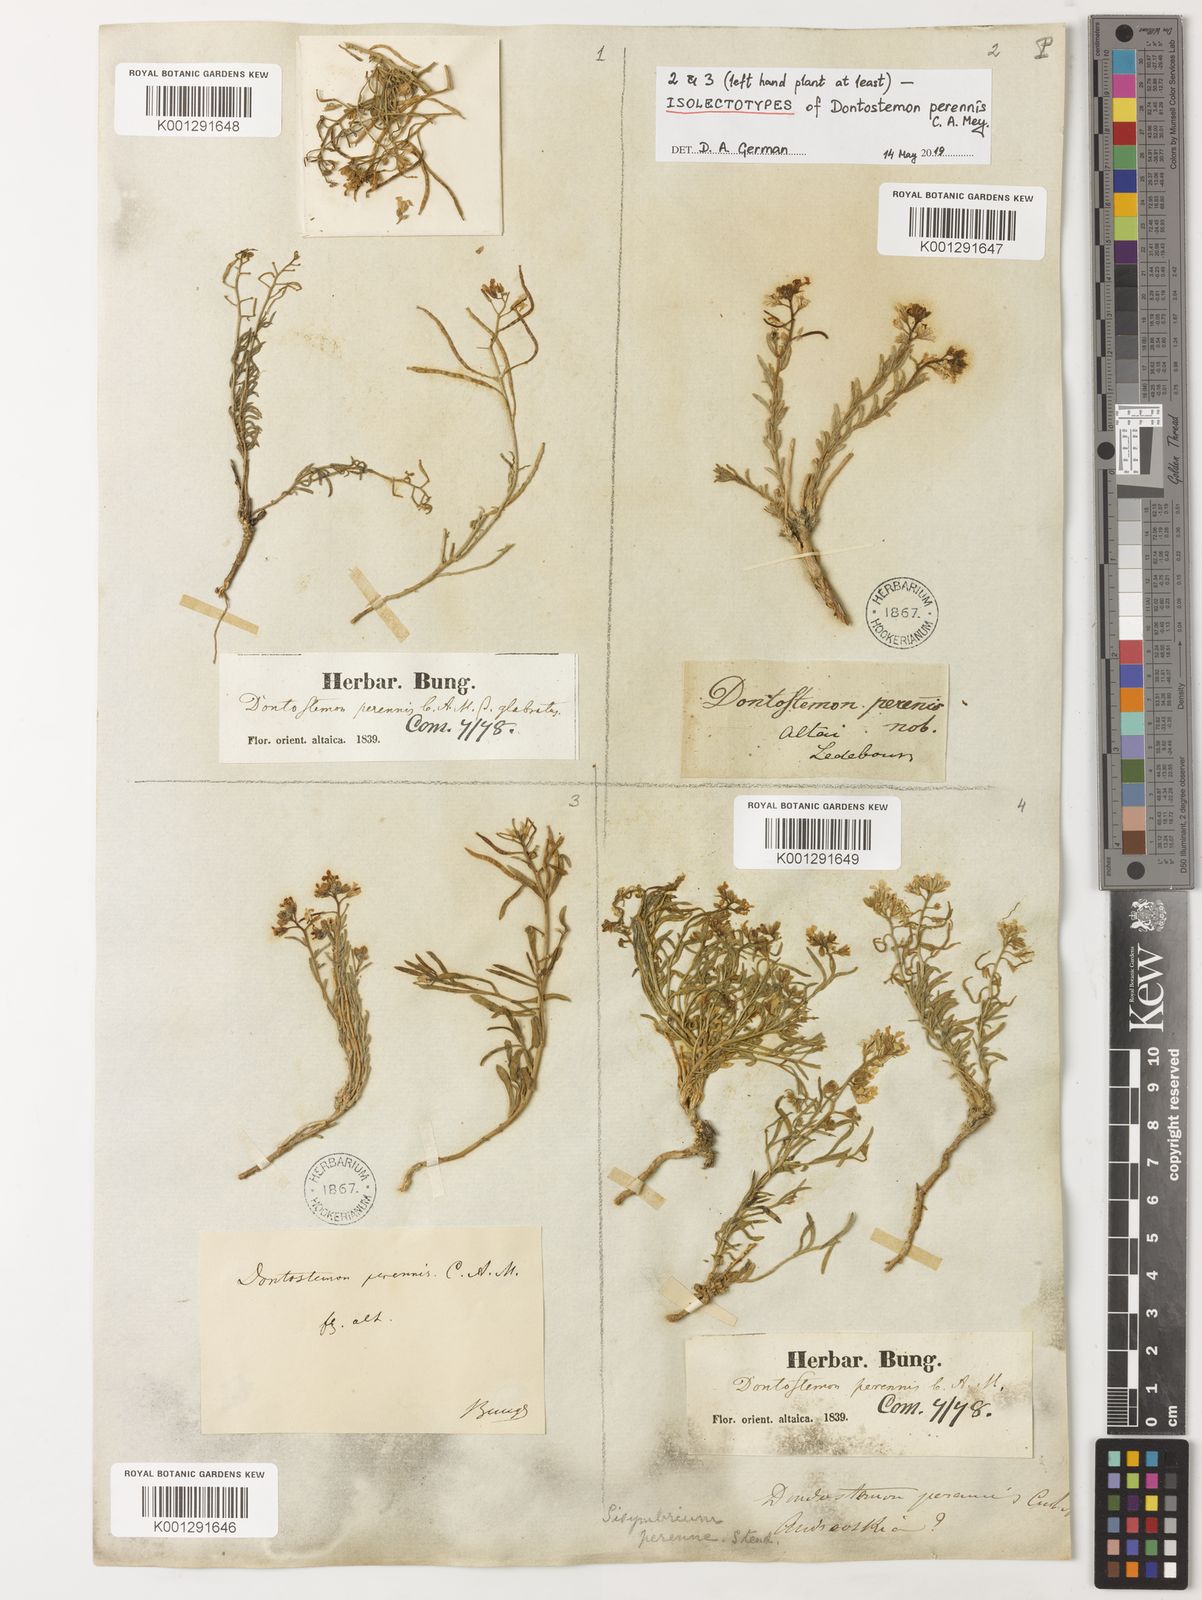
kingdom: Plantae
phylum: Tracheophyta
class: Magnoliopsida
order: Brassicales
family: Brassicaceae
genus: Dontostemon
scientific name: Dontostemon perennis
